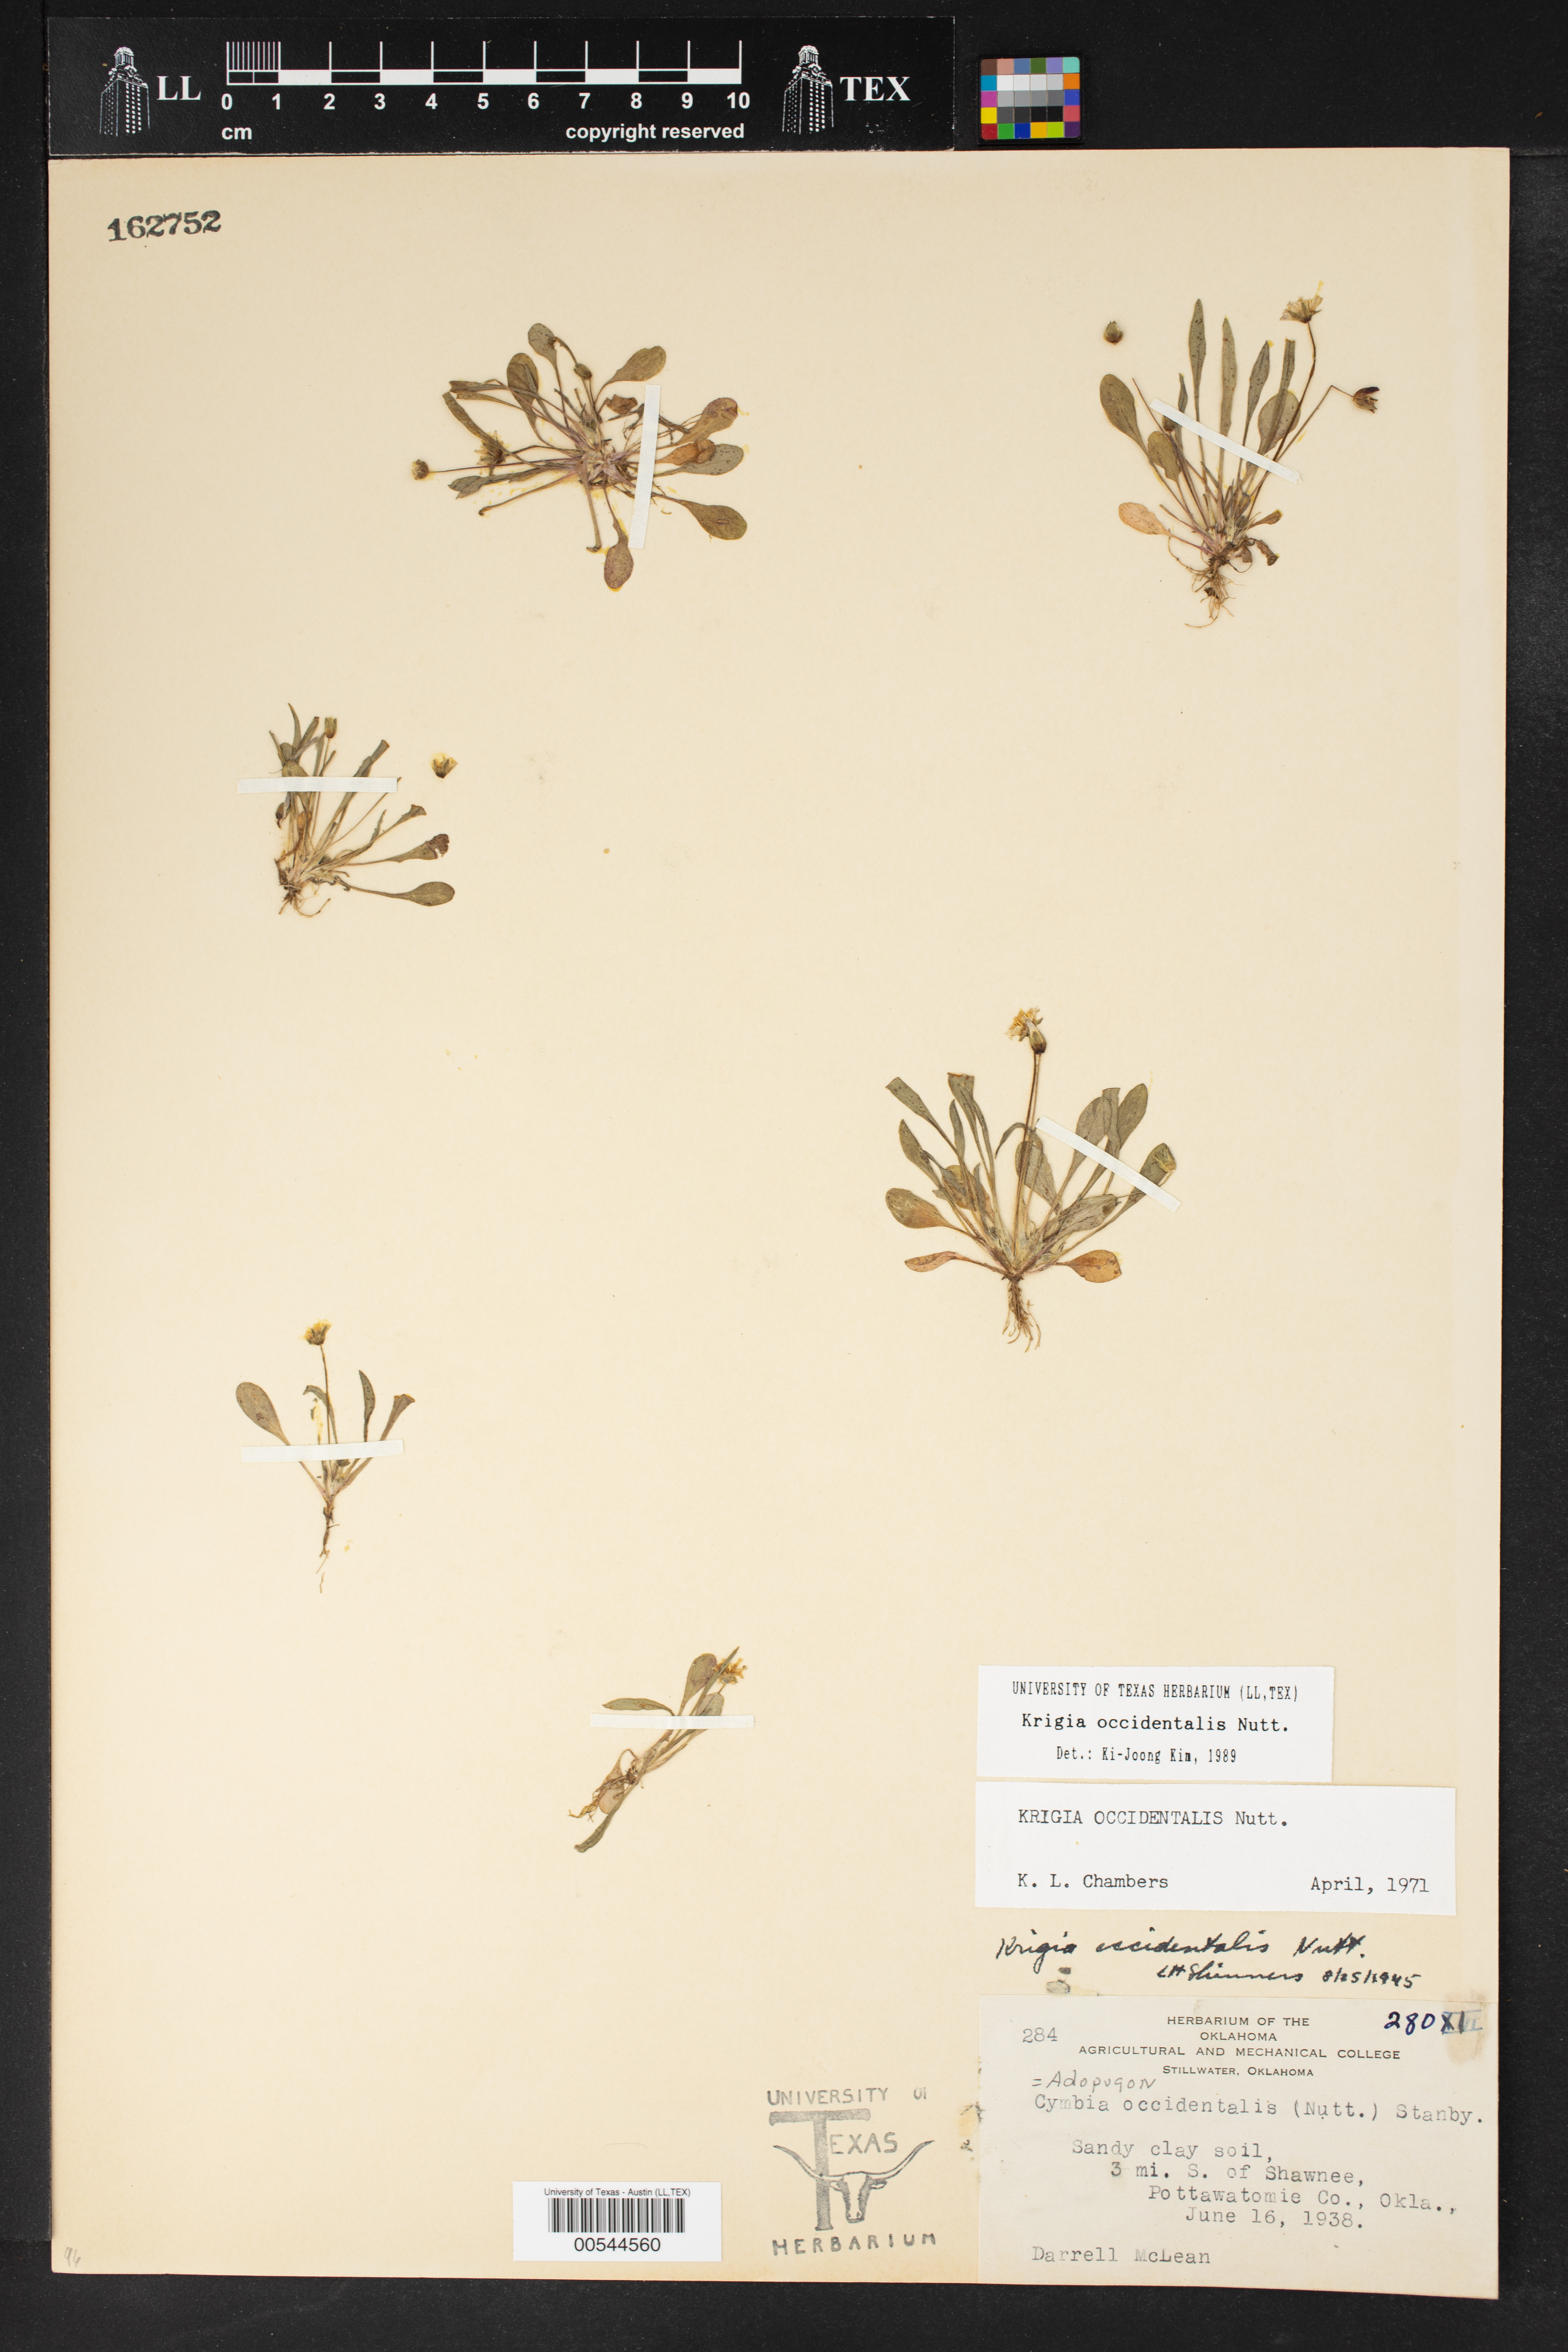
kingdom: Plantae
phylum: Tracheophyta
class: Magnoliopsida
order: Asterales
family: Asteraceae
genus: Krigia
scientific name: Krigia occidentalis
